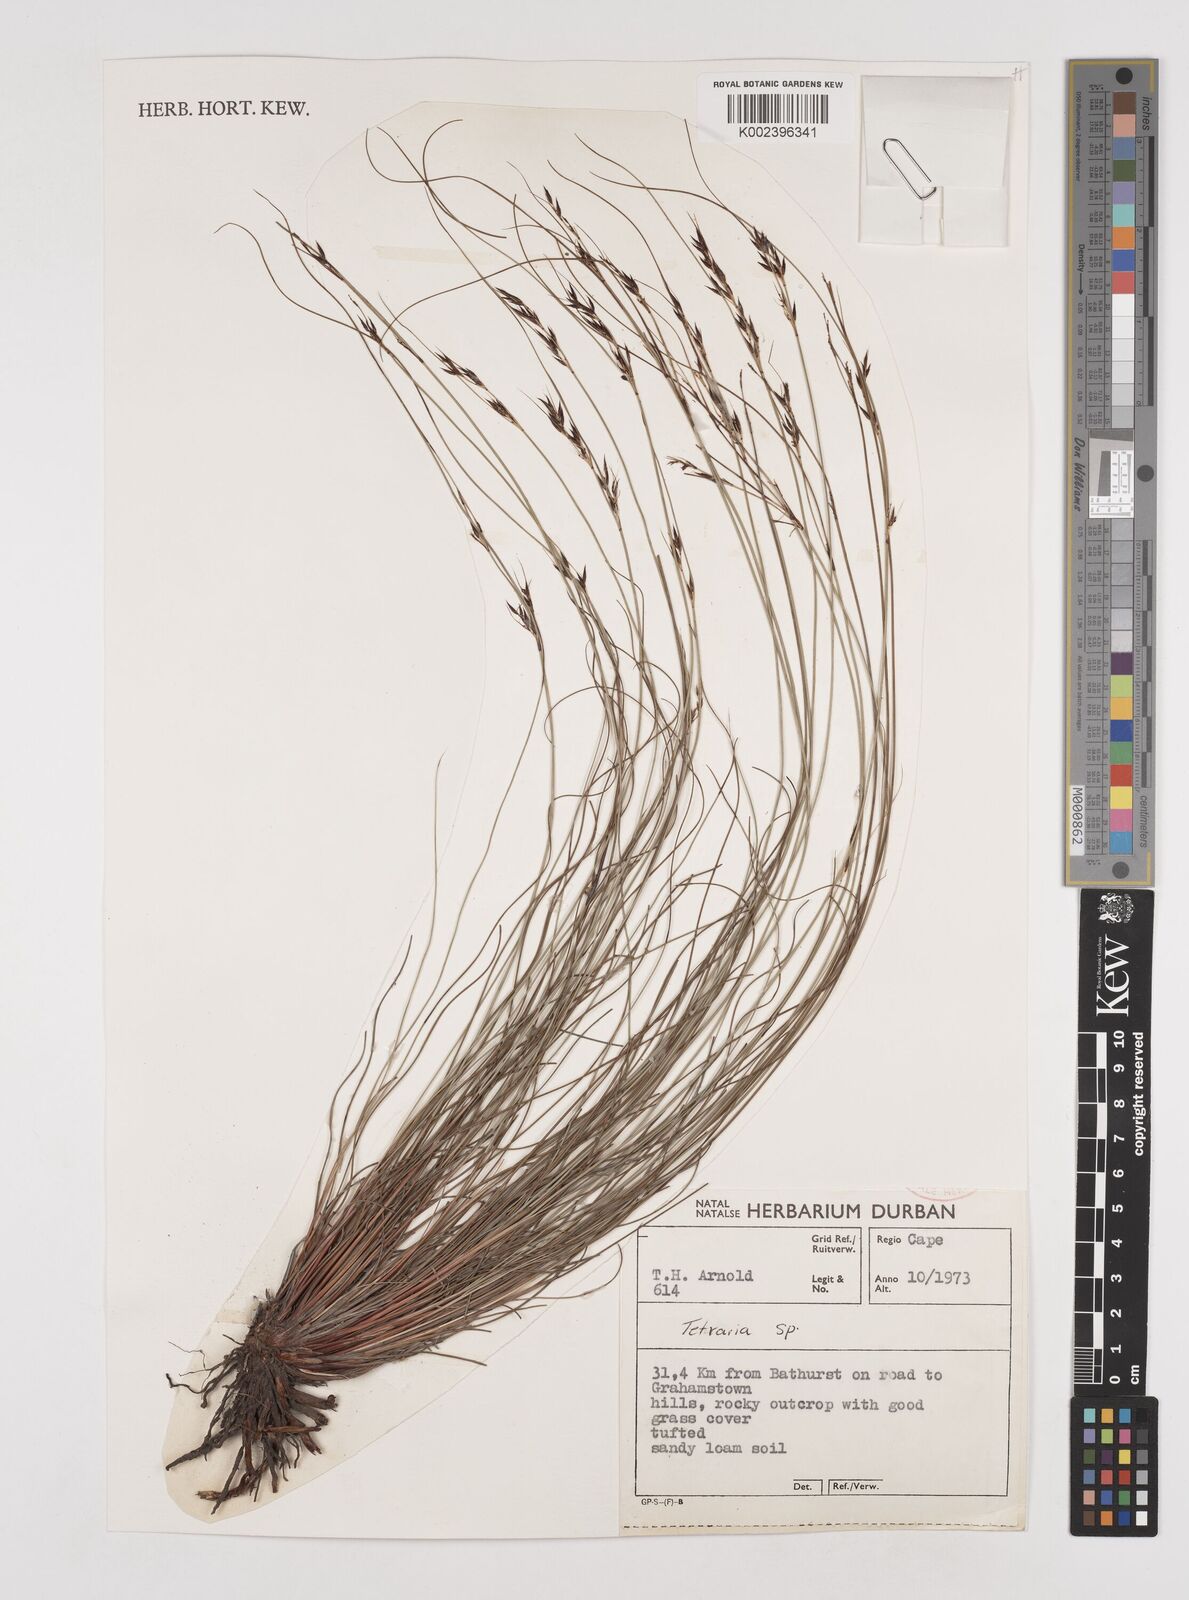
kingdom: Plantae
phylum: Tracheophyta
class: Liliopsida
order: Poales
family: Cyperaceae
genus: Schoenus
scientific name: Schoenus cuspidatus
